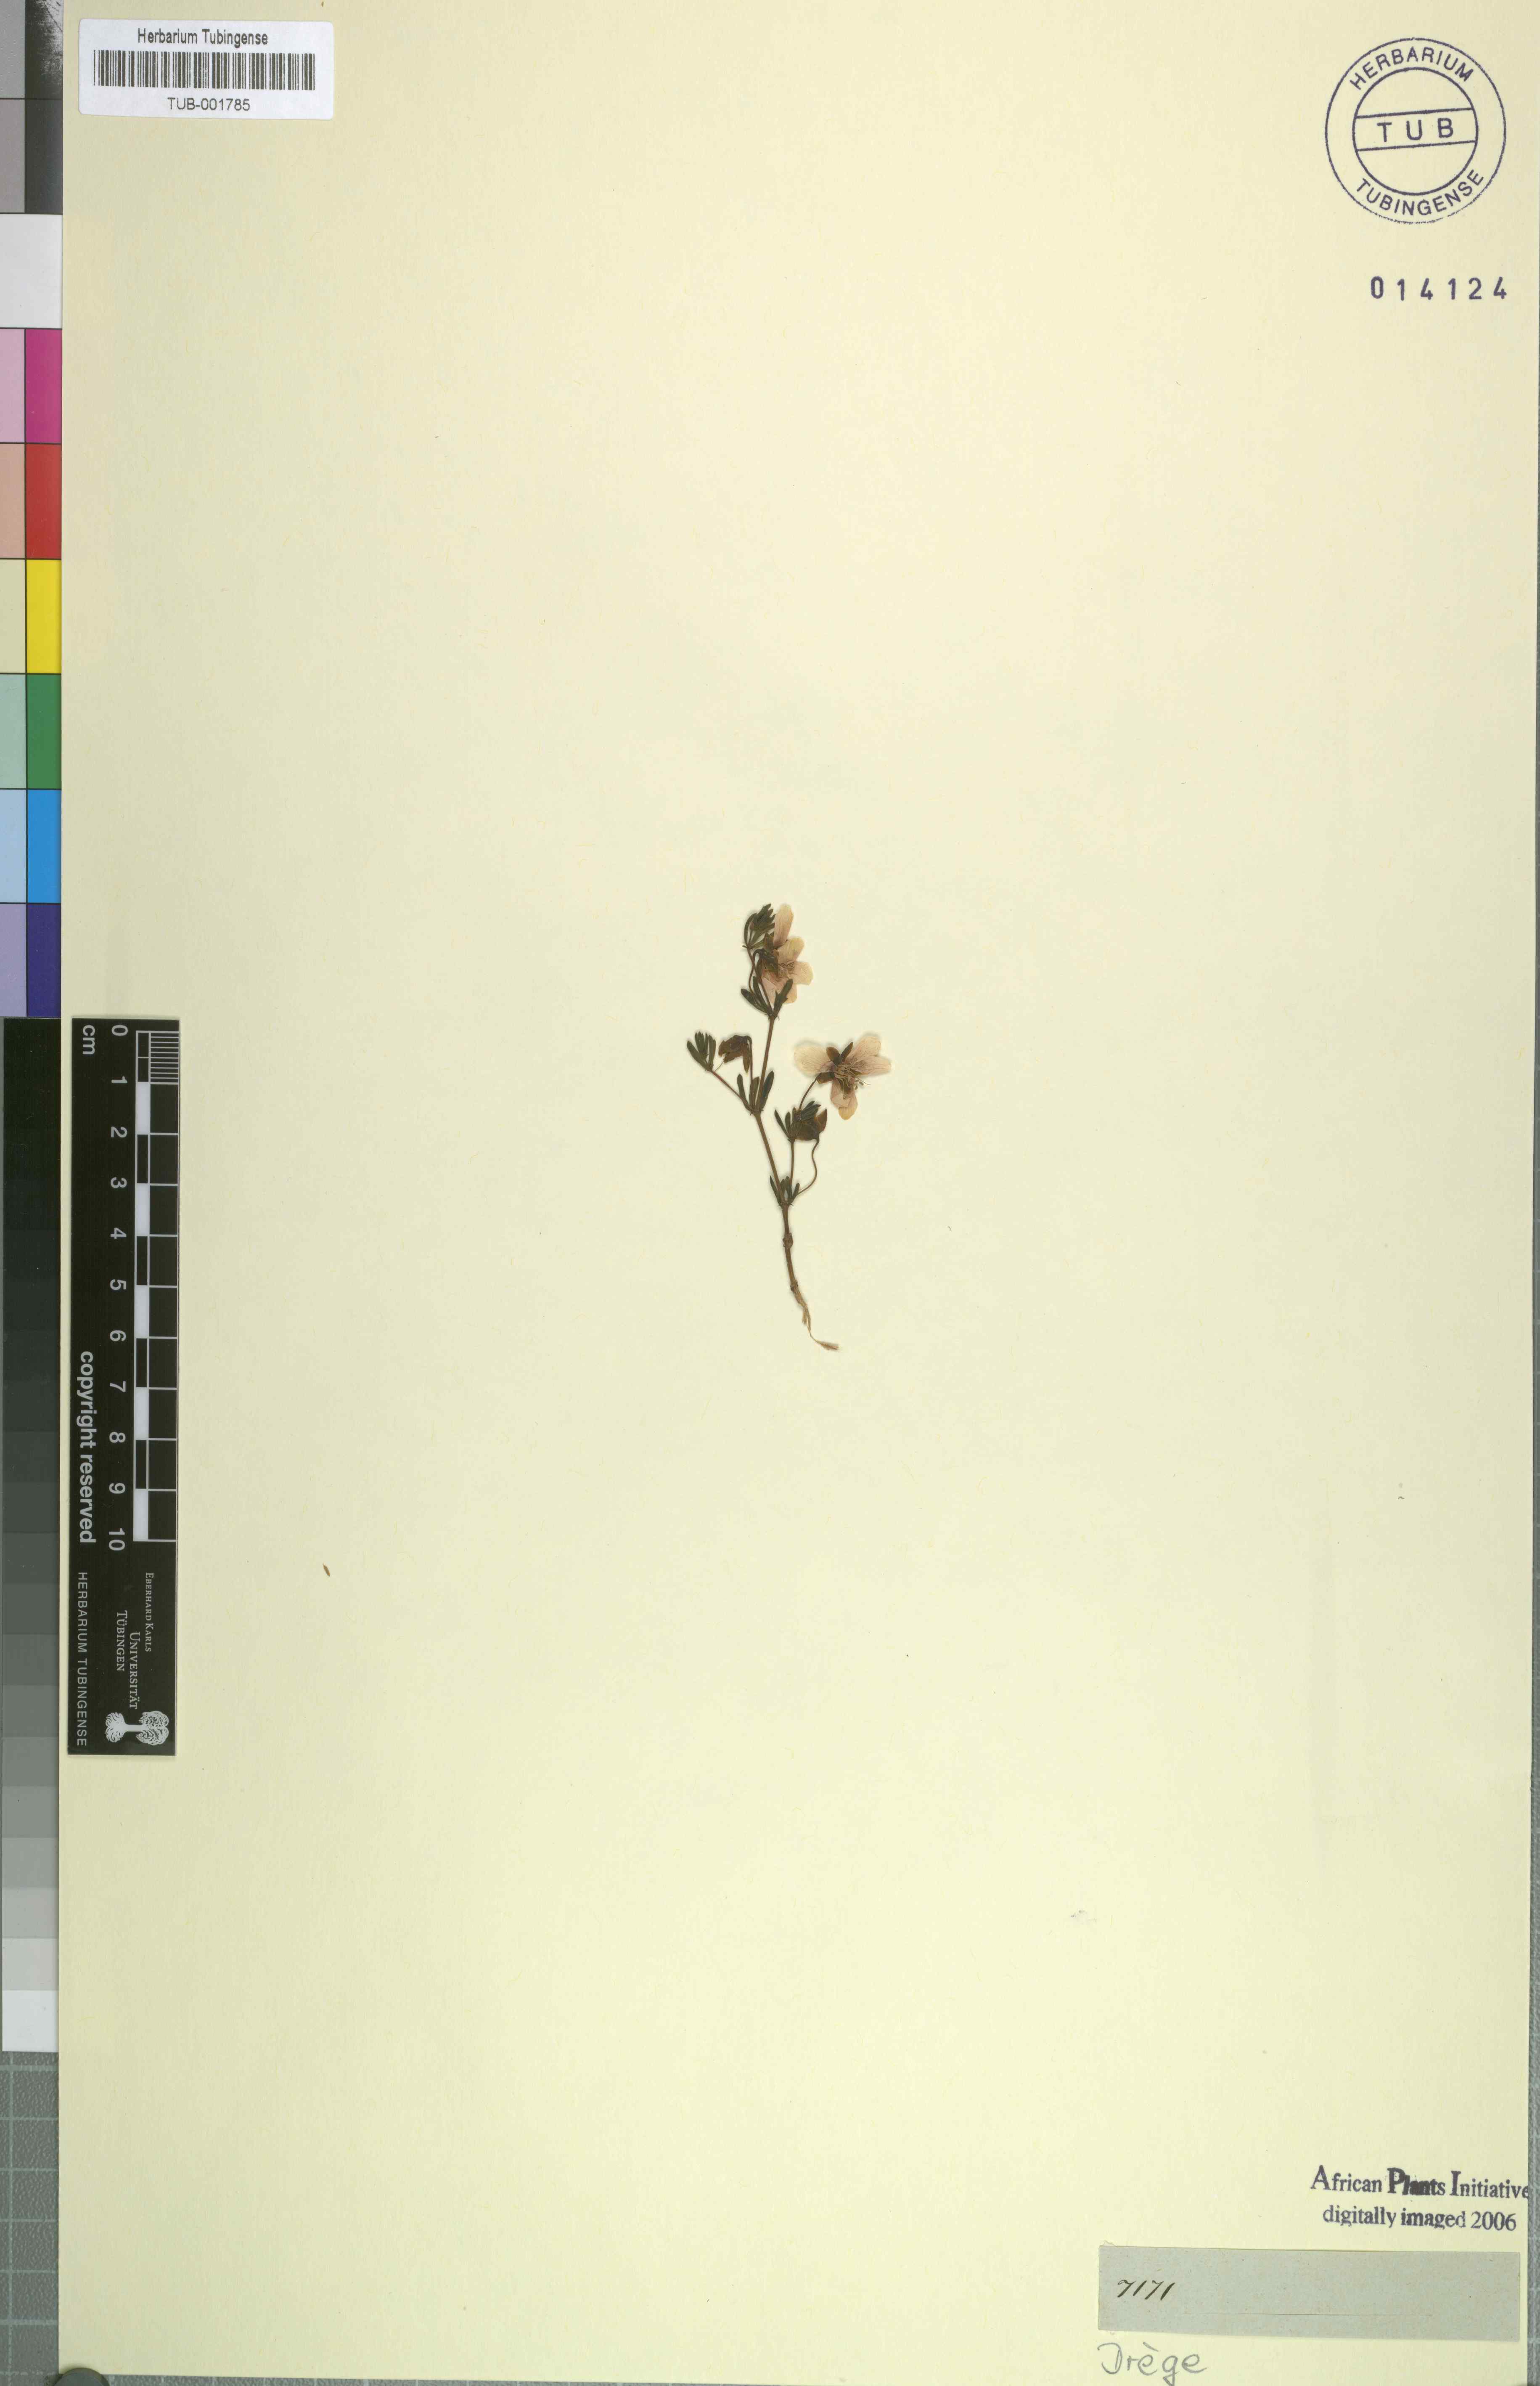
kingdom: Plantae
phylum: Tracheophyta
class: Magnoliopsida
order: Zygophyllales
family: Zygophyllaceae
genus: Zygophyllum
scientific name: Zygophyllum
